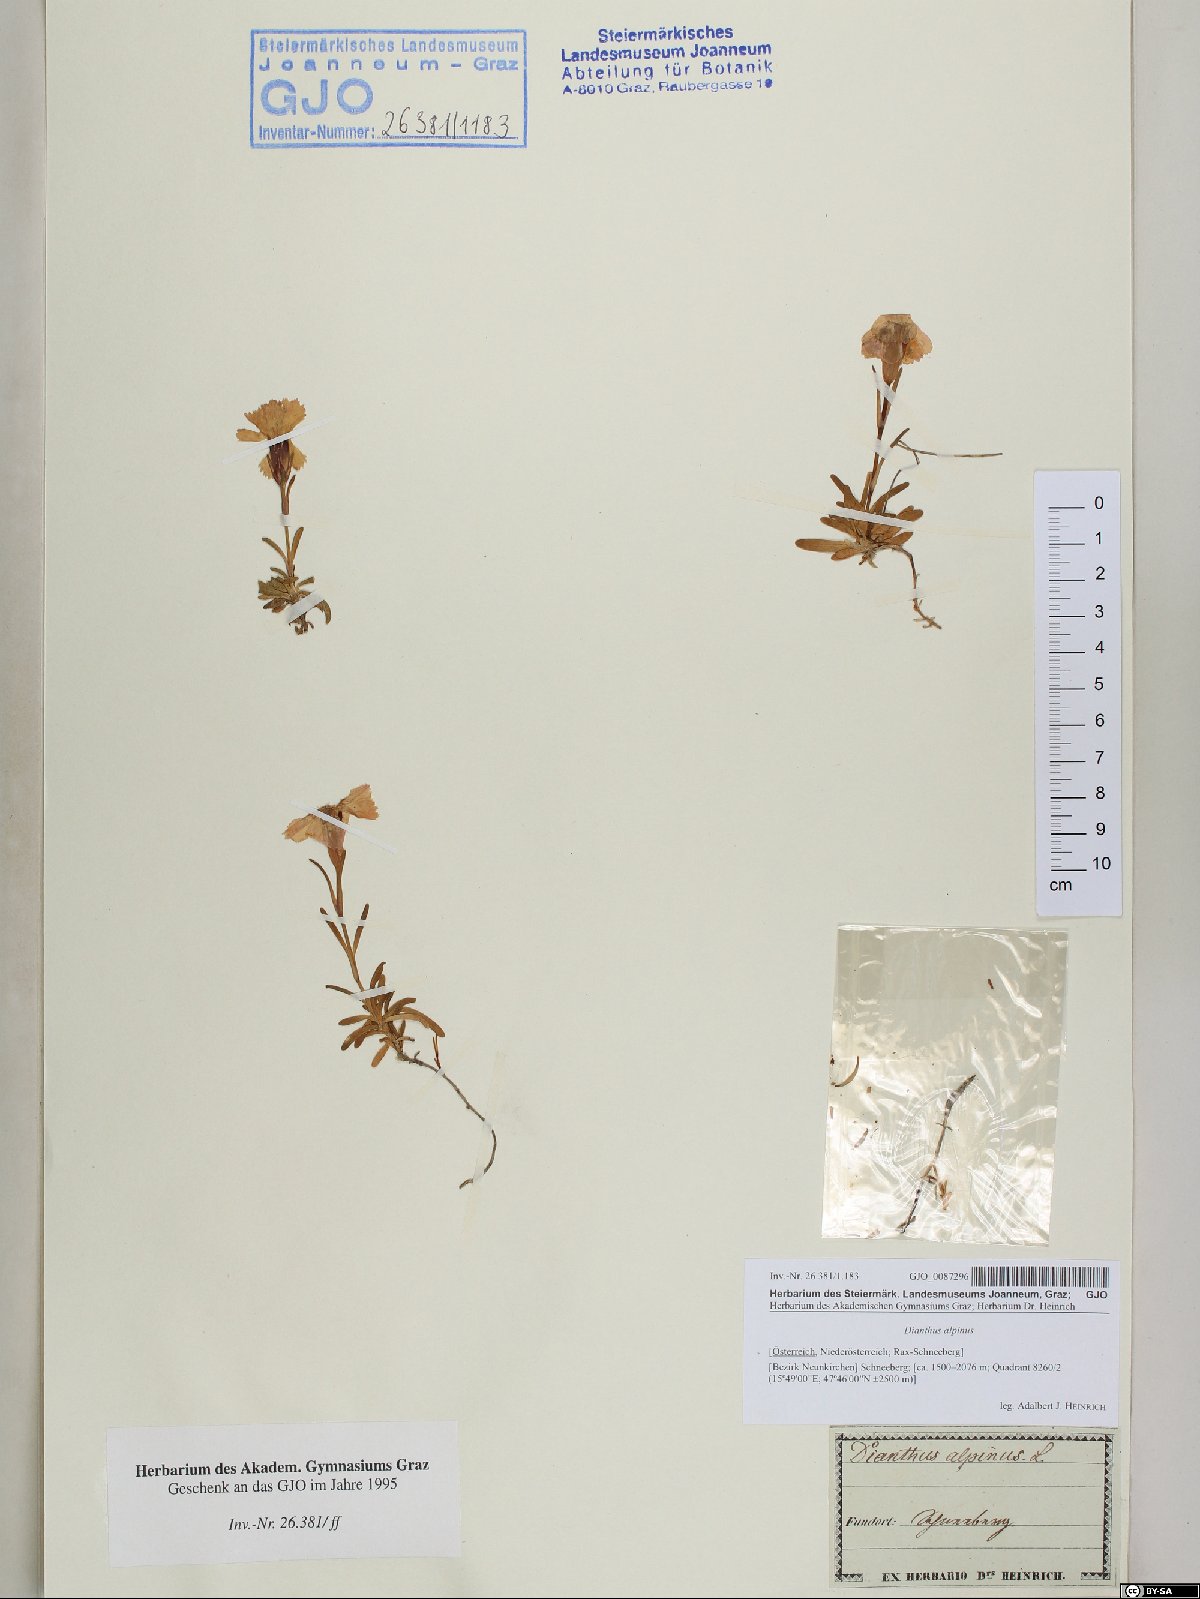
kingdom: Plantae
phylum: Tracheophyta
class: Magnoliopsida
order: Caryophyllales
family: Caryophyllaceae
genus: Dianthus
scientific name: Dianthus alpinus
